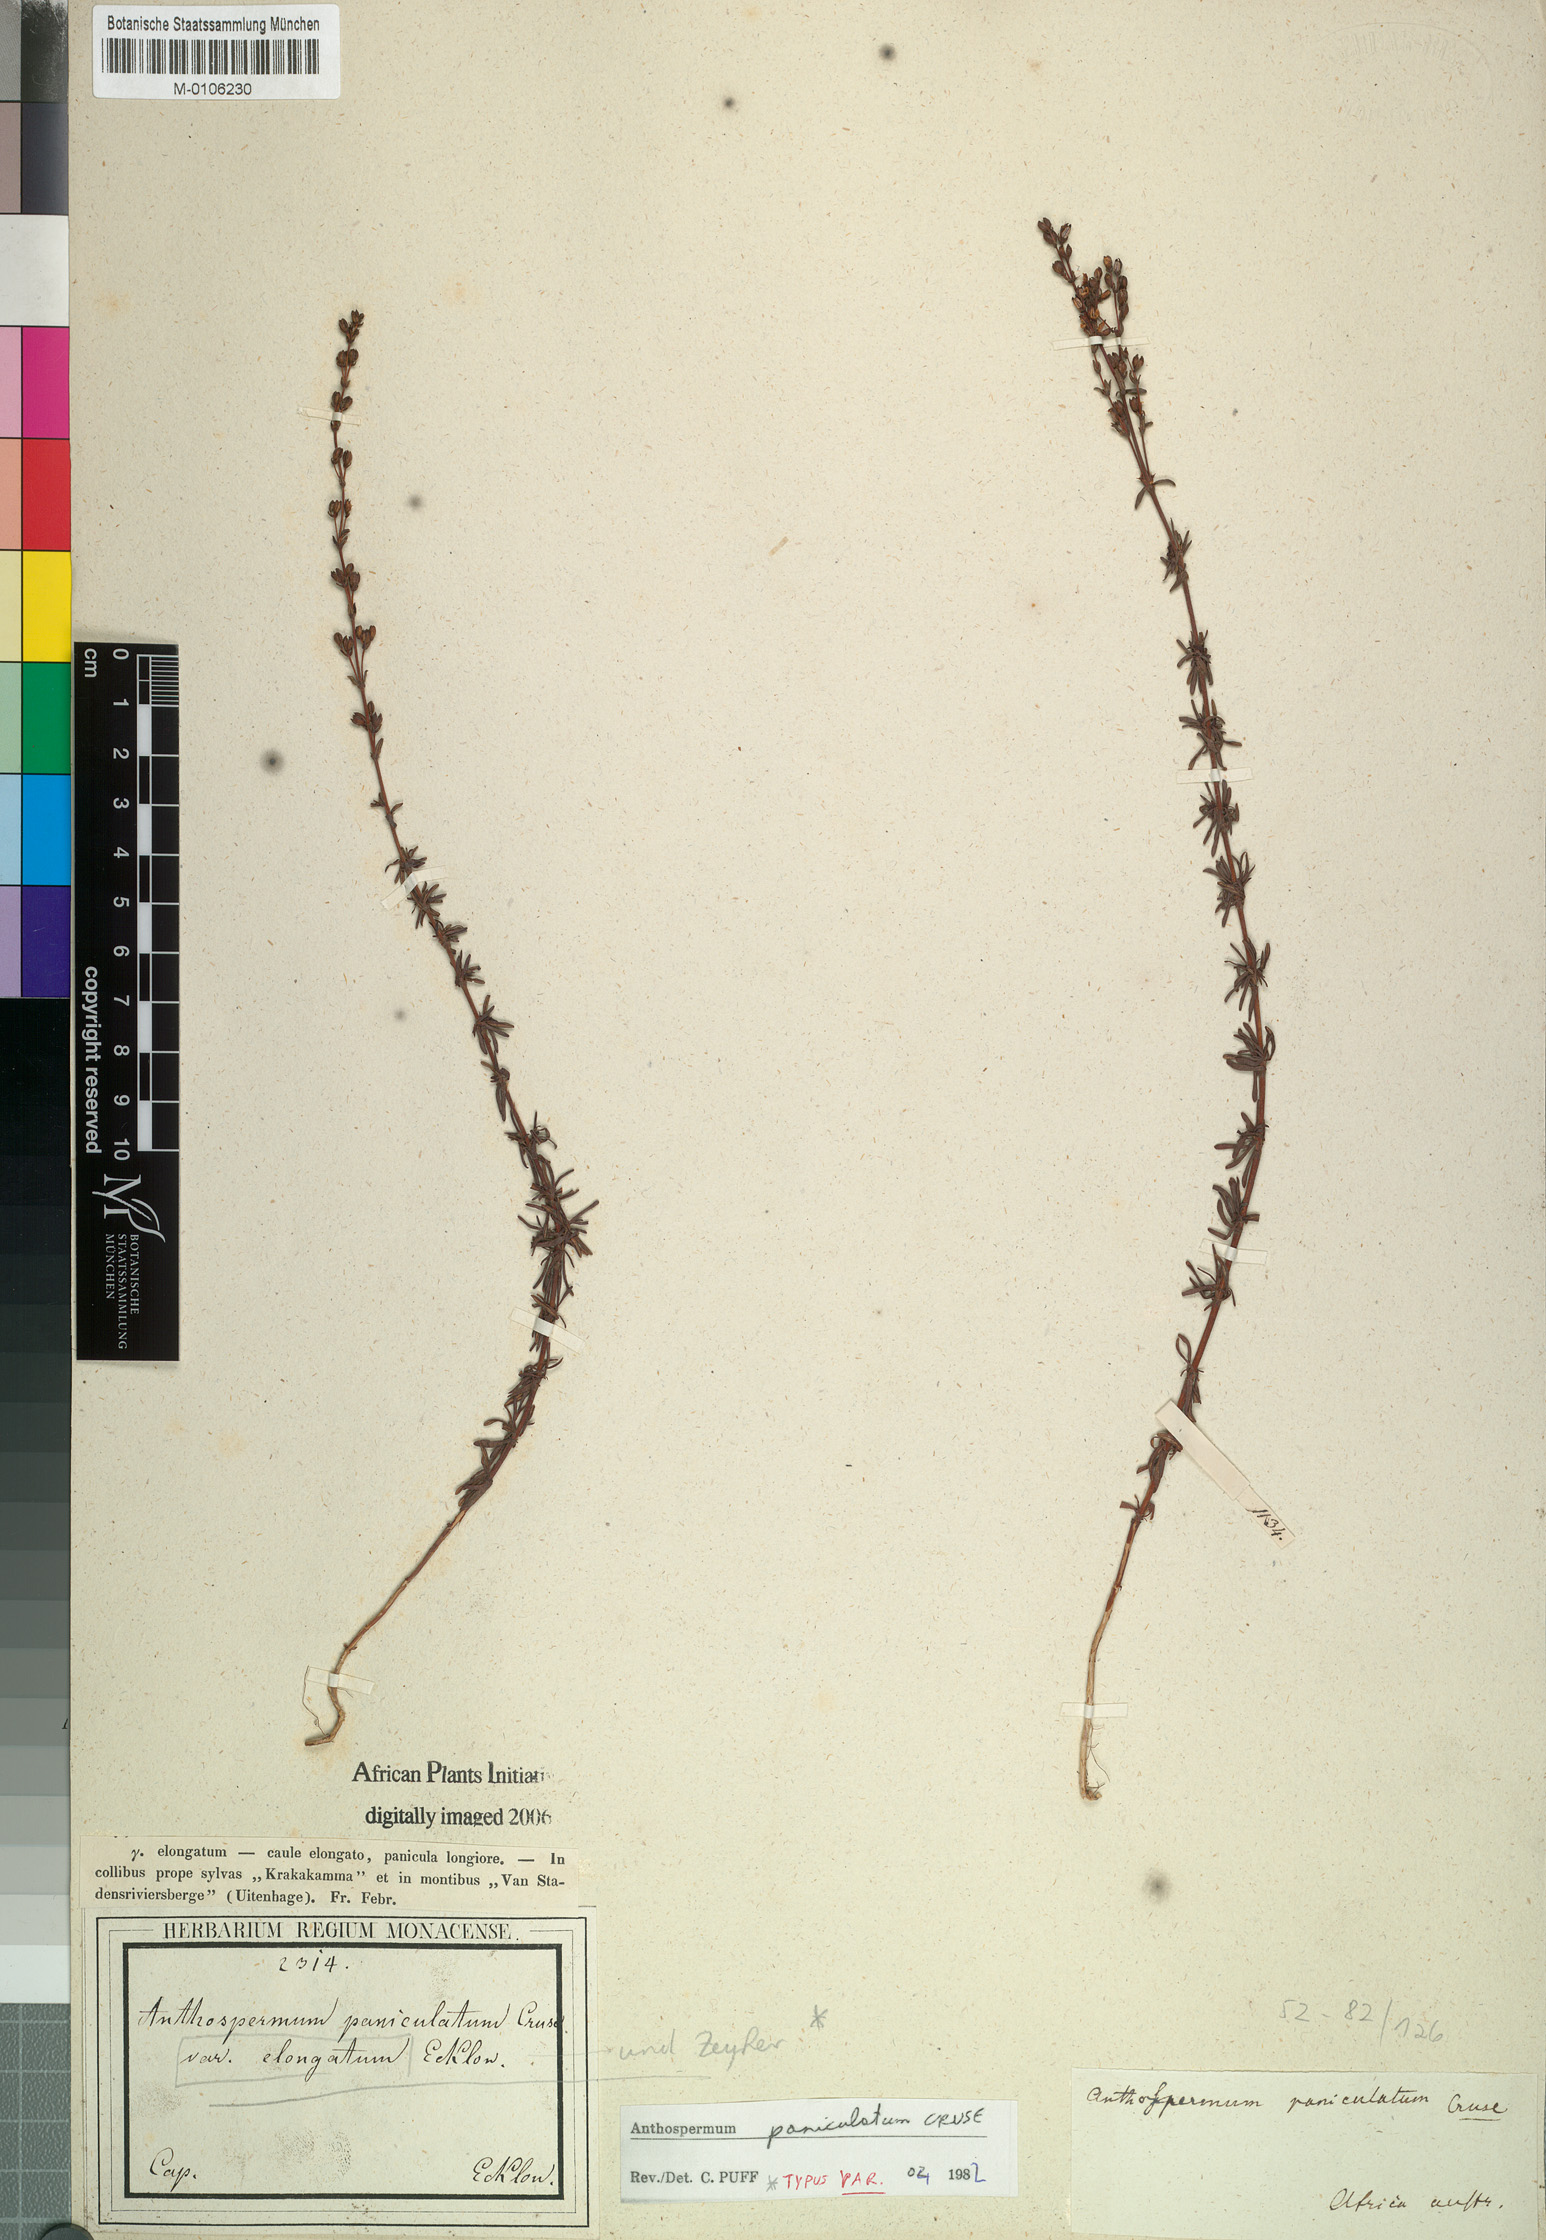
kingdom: Plantae
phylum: Tracheophyta
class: Magnoliopsida
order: Gentianales
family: Rubiaceae
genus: Anthospermum
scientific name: Anthospermum paniculatum
